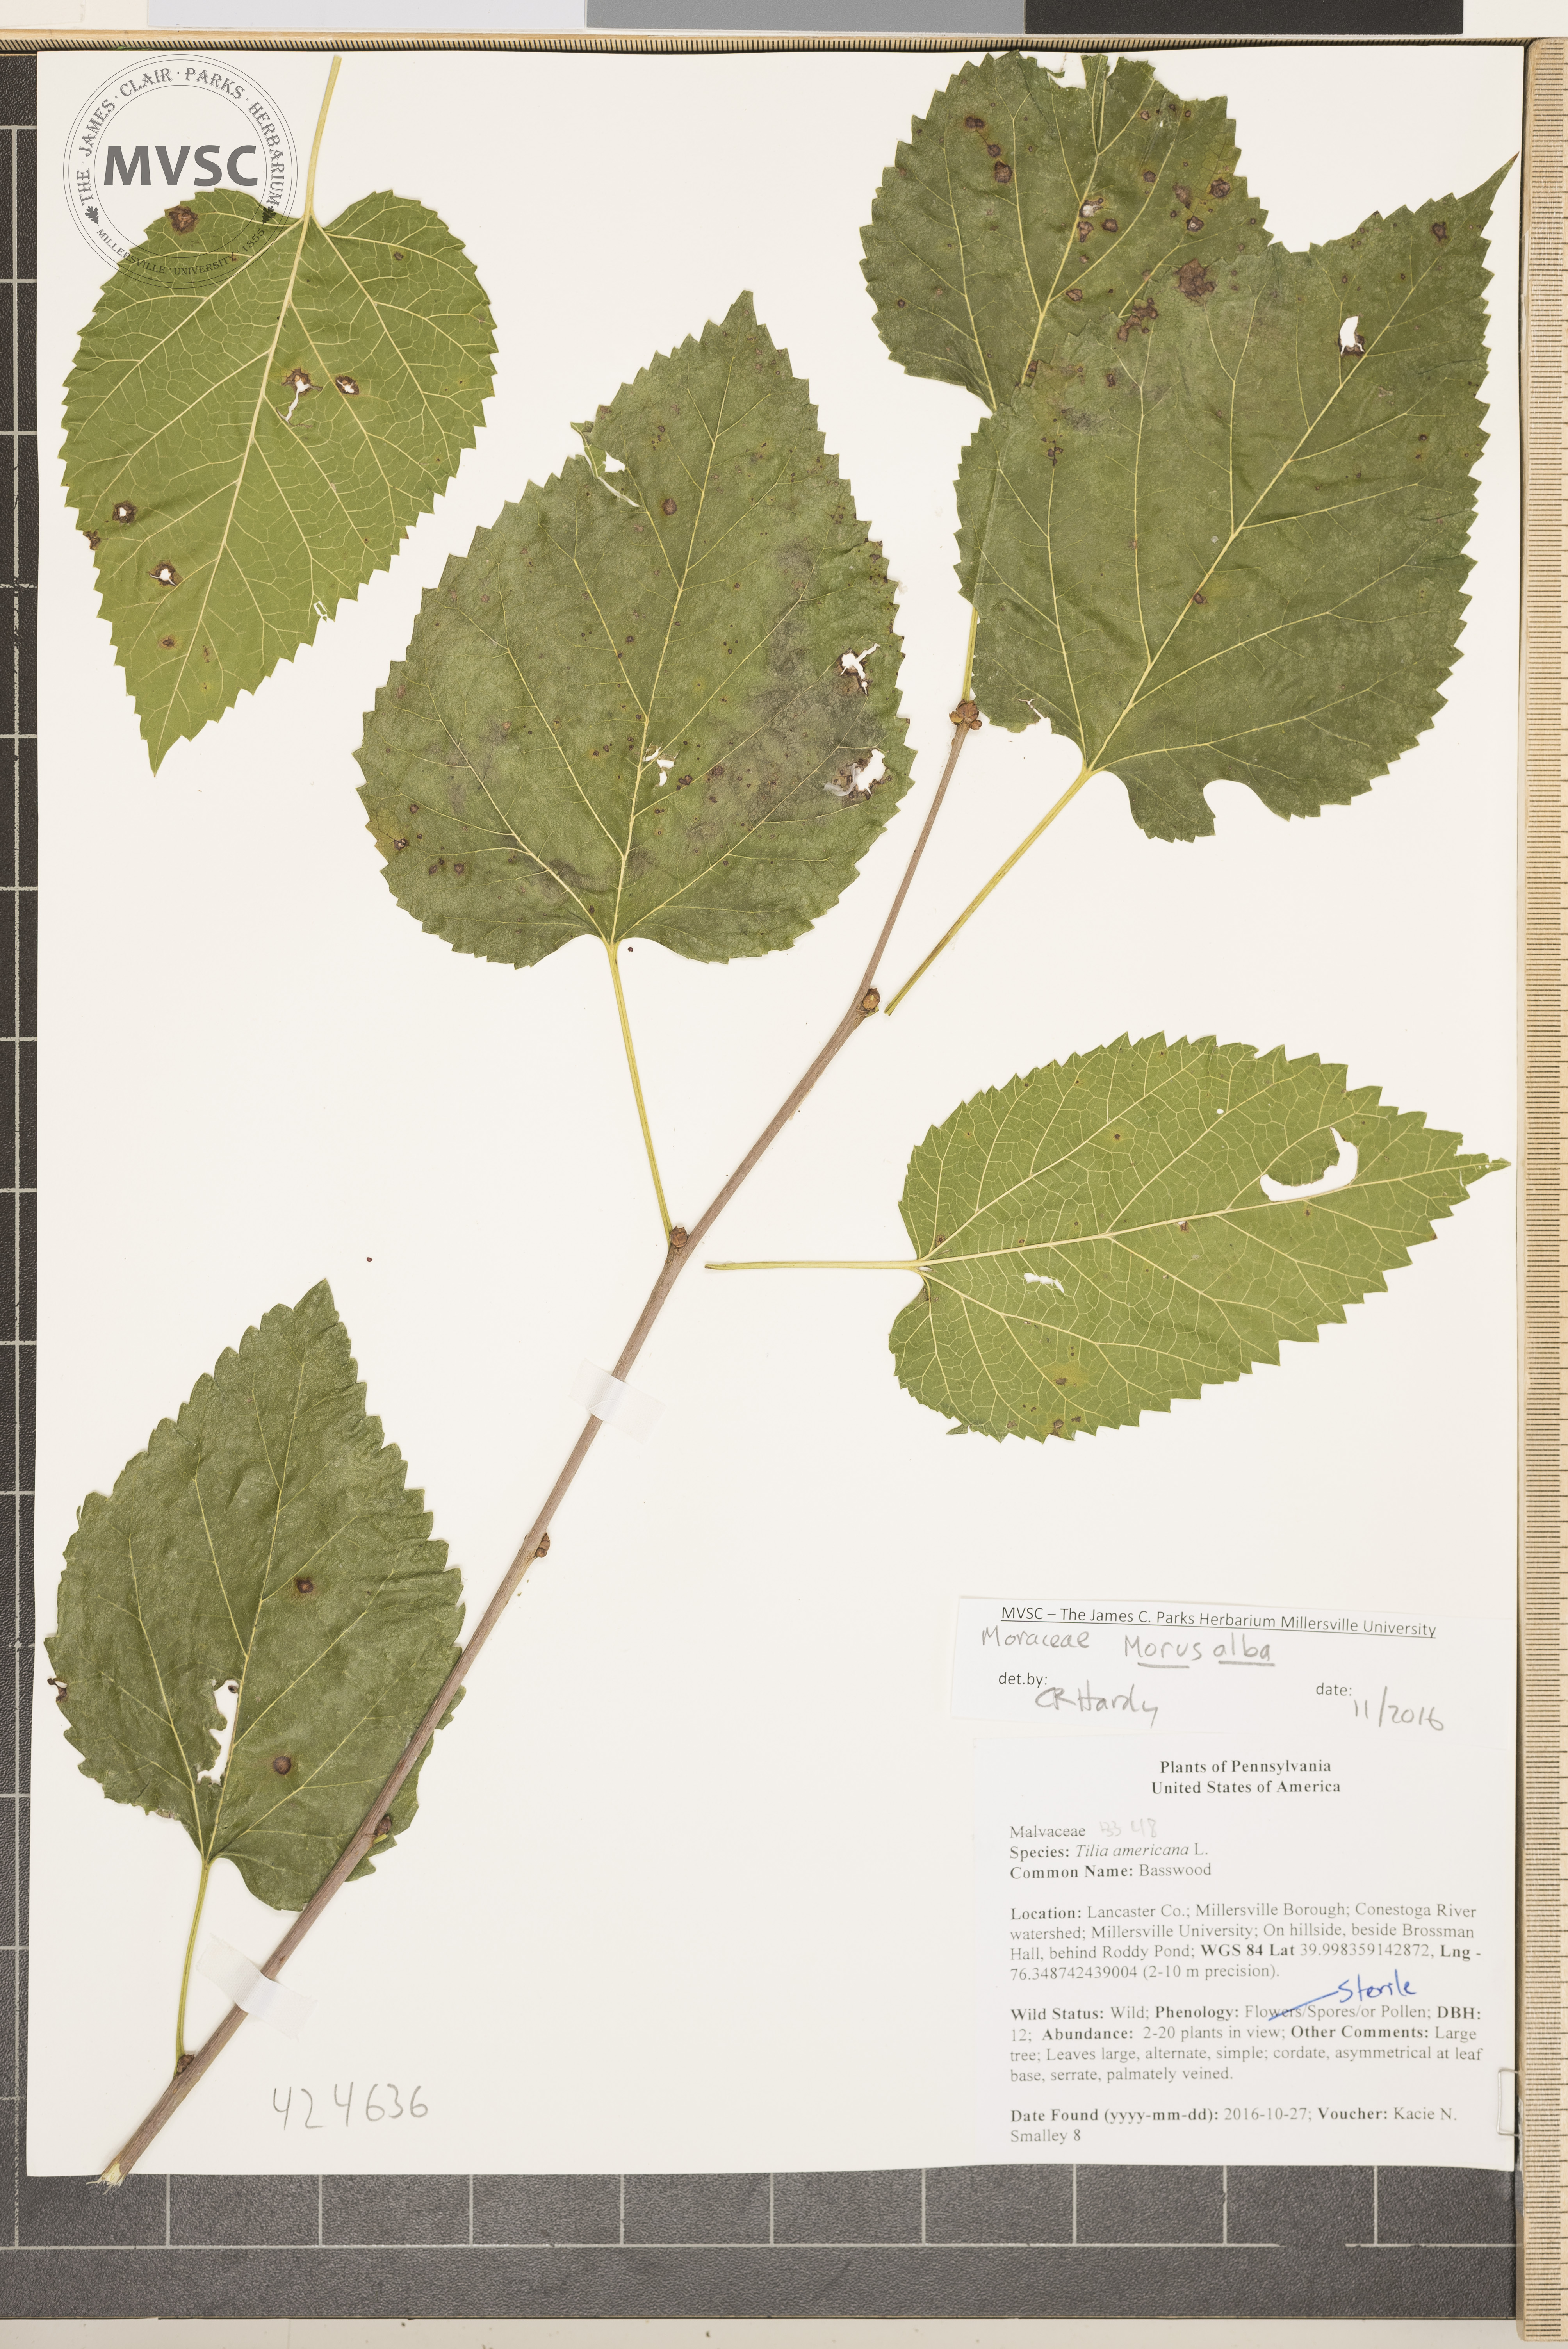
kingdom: Plantae
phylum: Tracheophyta
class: Magnoliopsida
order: Rosales
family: Moraceae
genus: Morus
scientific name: Morus alba
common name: White mulberry
